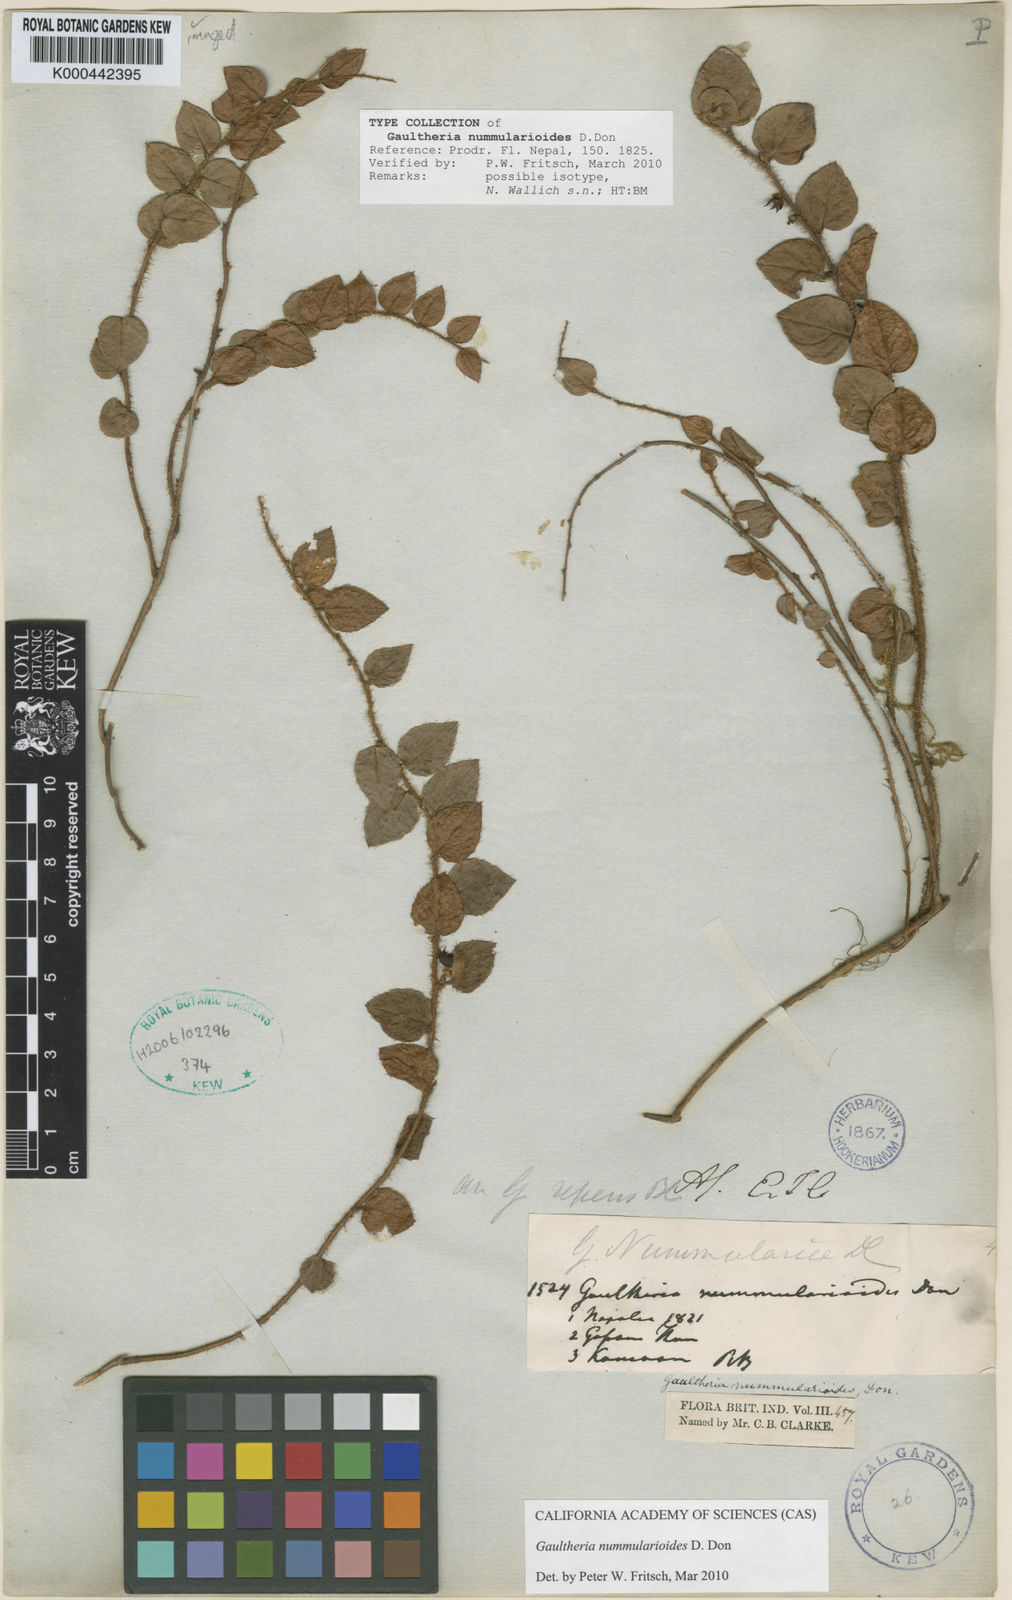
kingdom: Plantae
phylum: Tracheophyta
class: Magnoliopsida
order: Ericales
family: Ericaceae
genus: Gaultheria
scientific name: Gaultheria nummularioides
